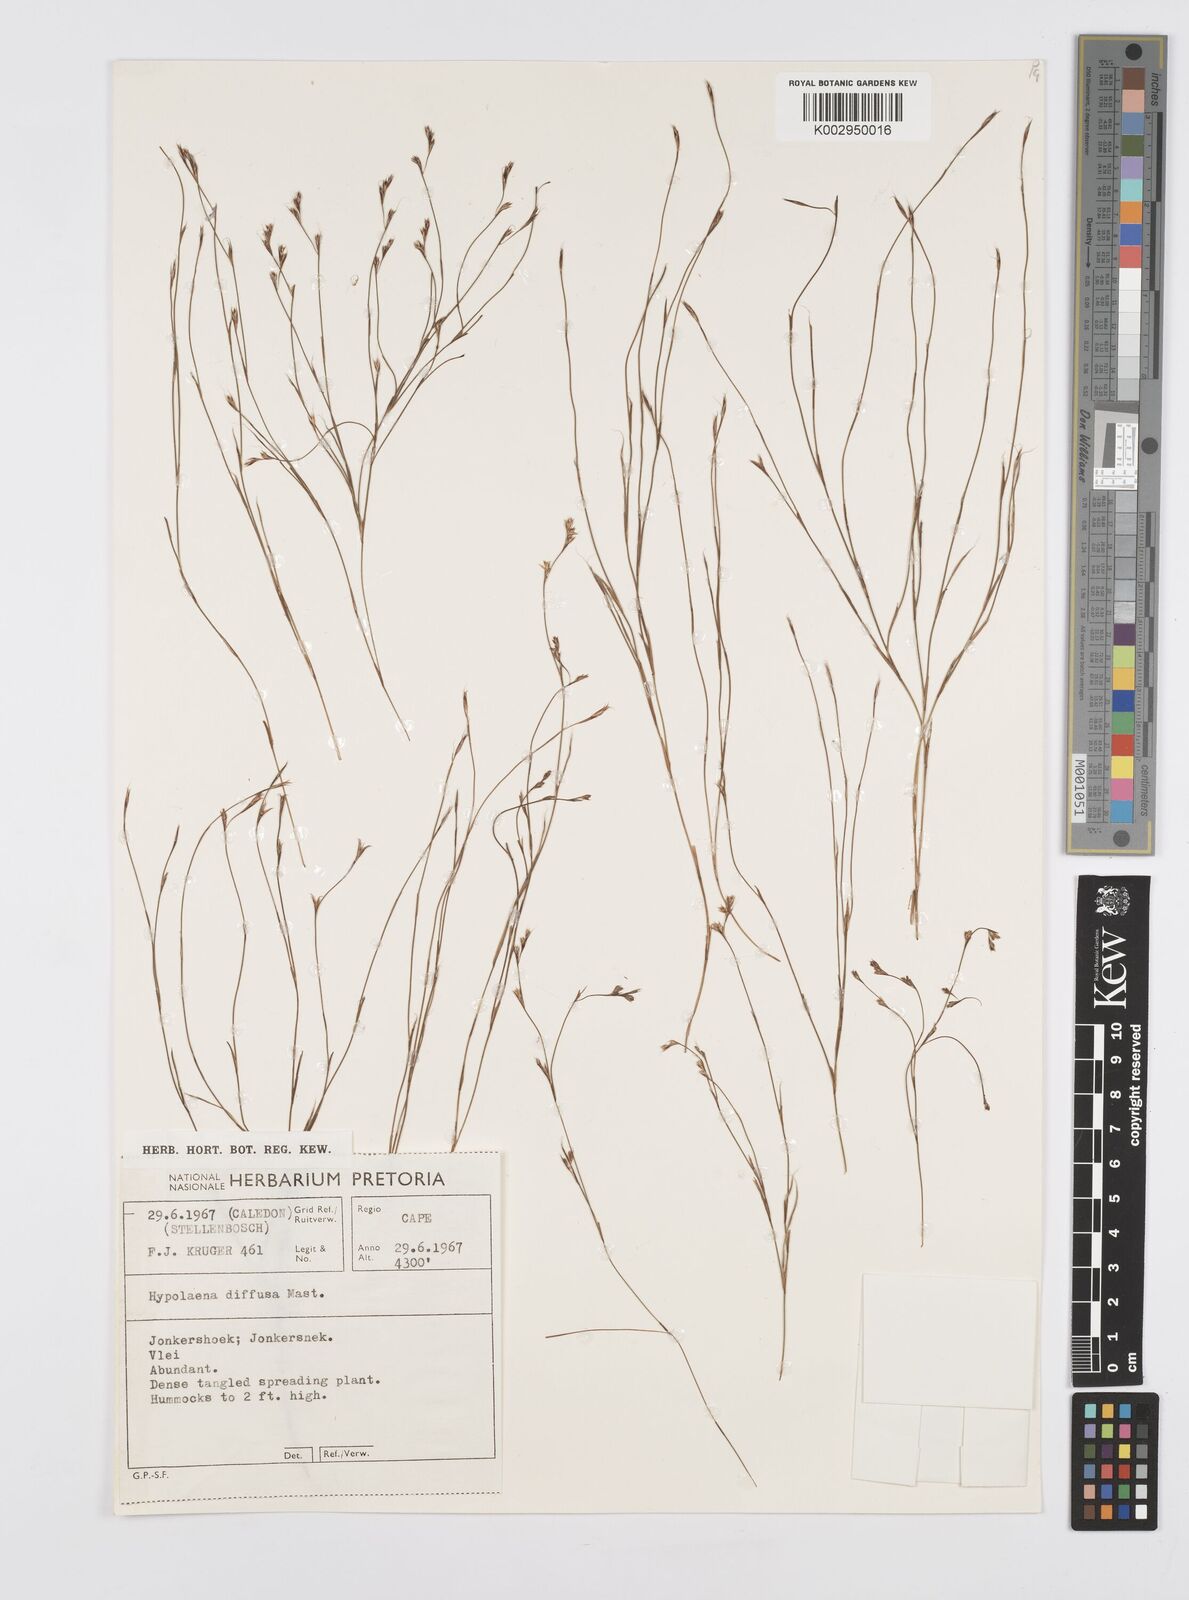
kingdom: Plantae
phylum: Tracheophyta
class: Liliopsida
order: Poales
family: Restionaceae
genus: Anthochortus
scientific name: Anthochortus
